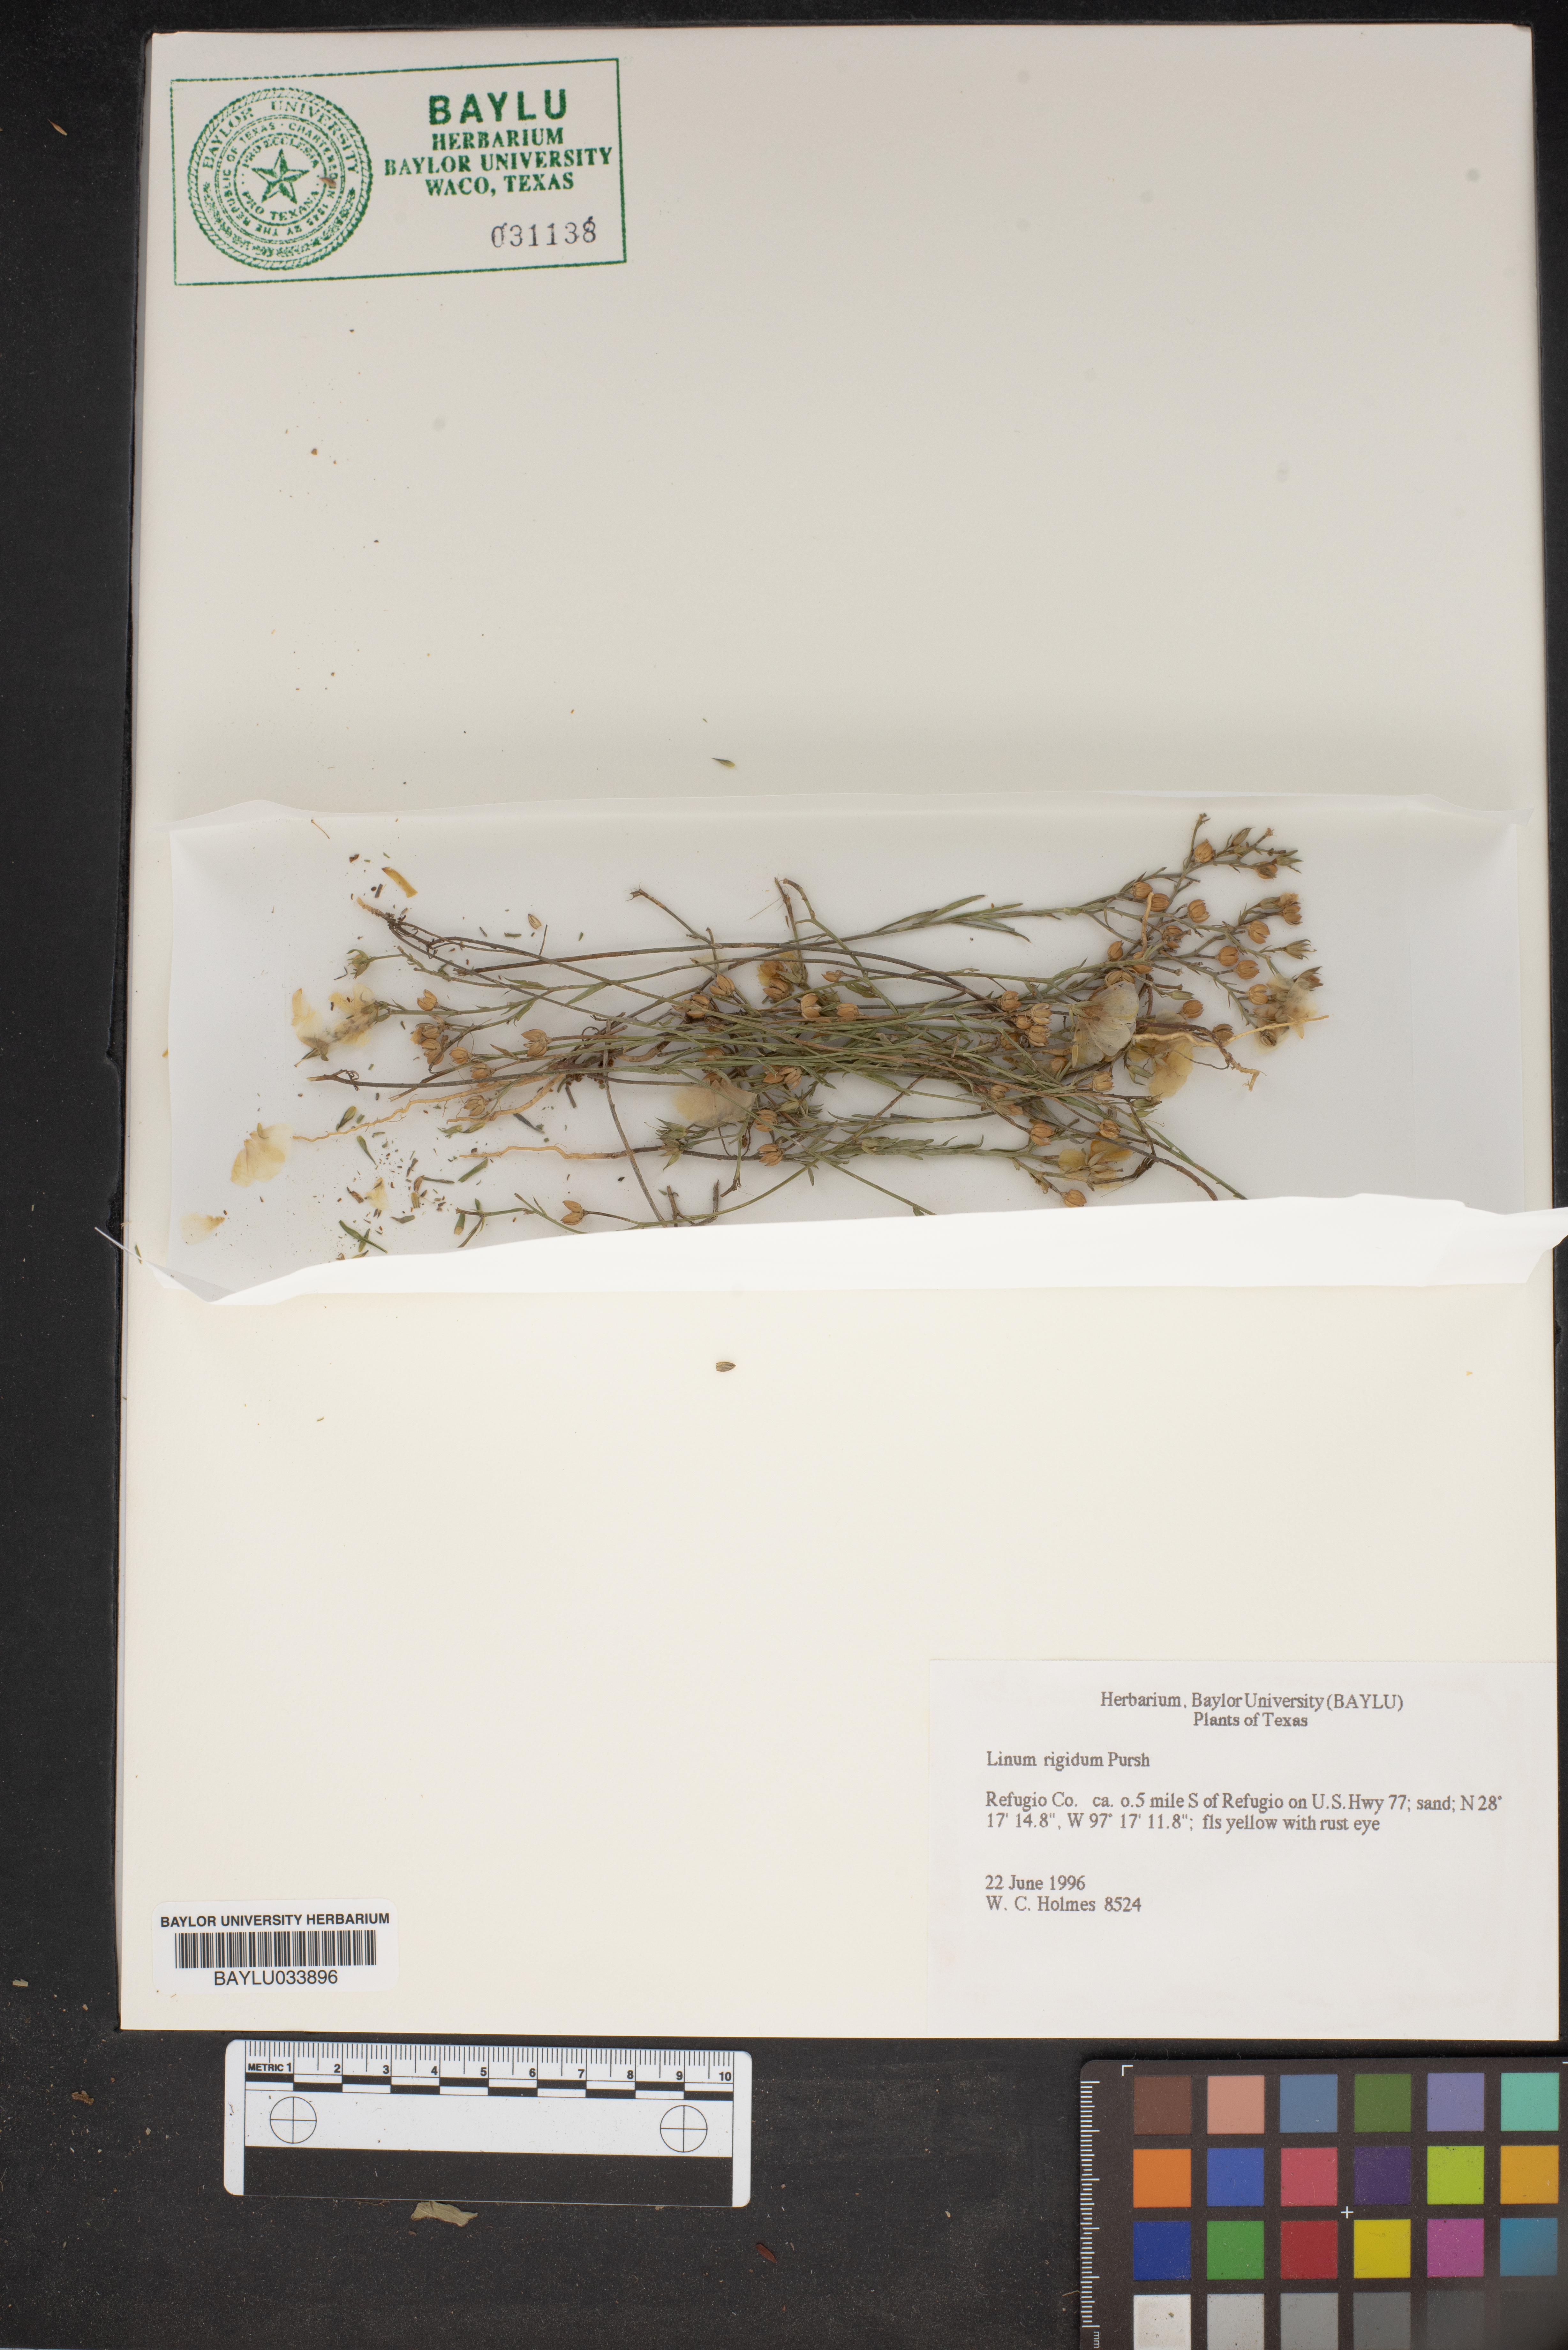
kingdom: Plantae
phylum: Tracheophyta
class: Magnoliopsida
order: Malpighiales
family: Linaceae
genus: Linum
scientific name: Linum rigidum
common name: Stiff-stem flax
